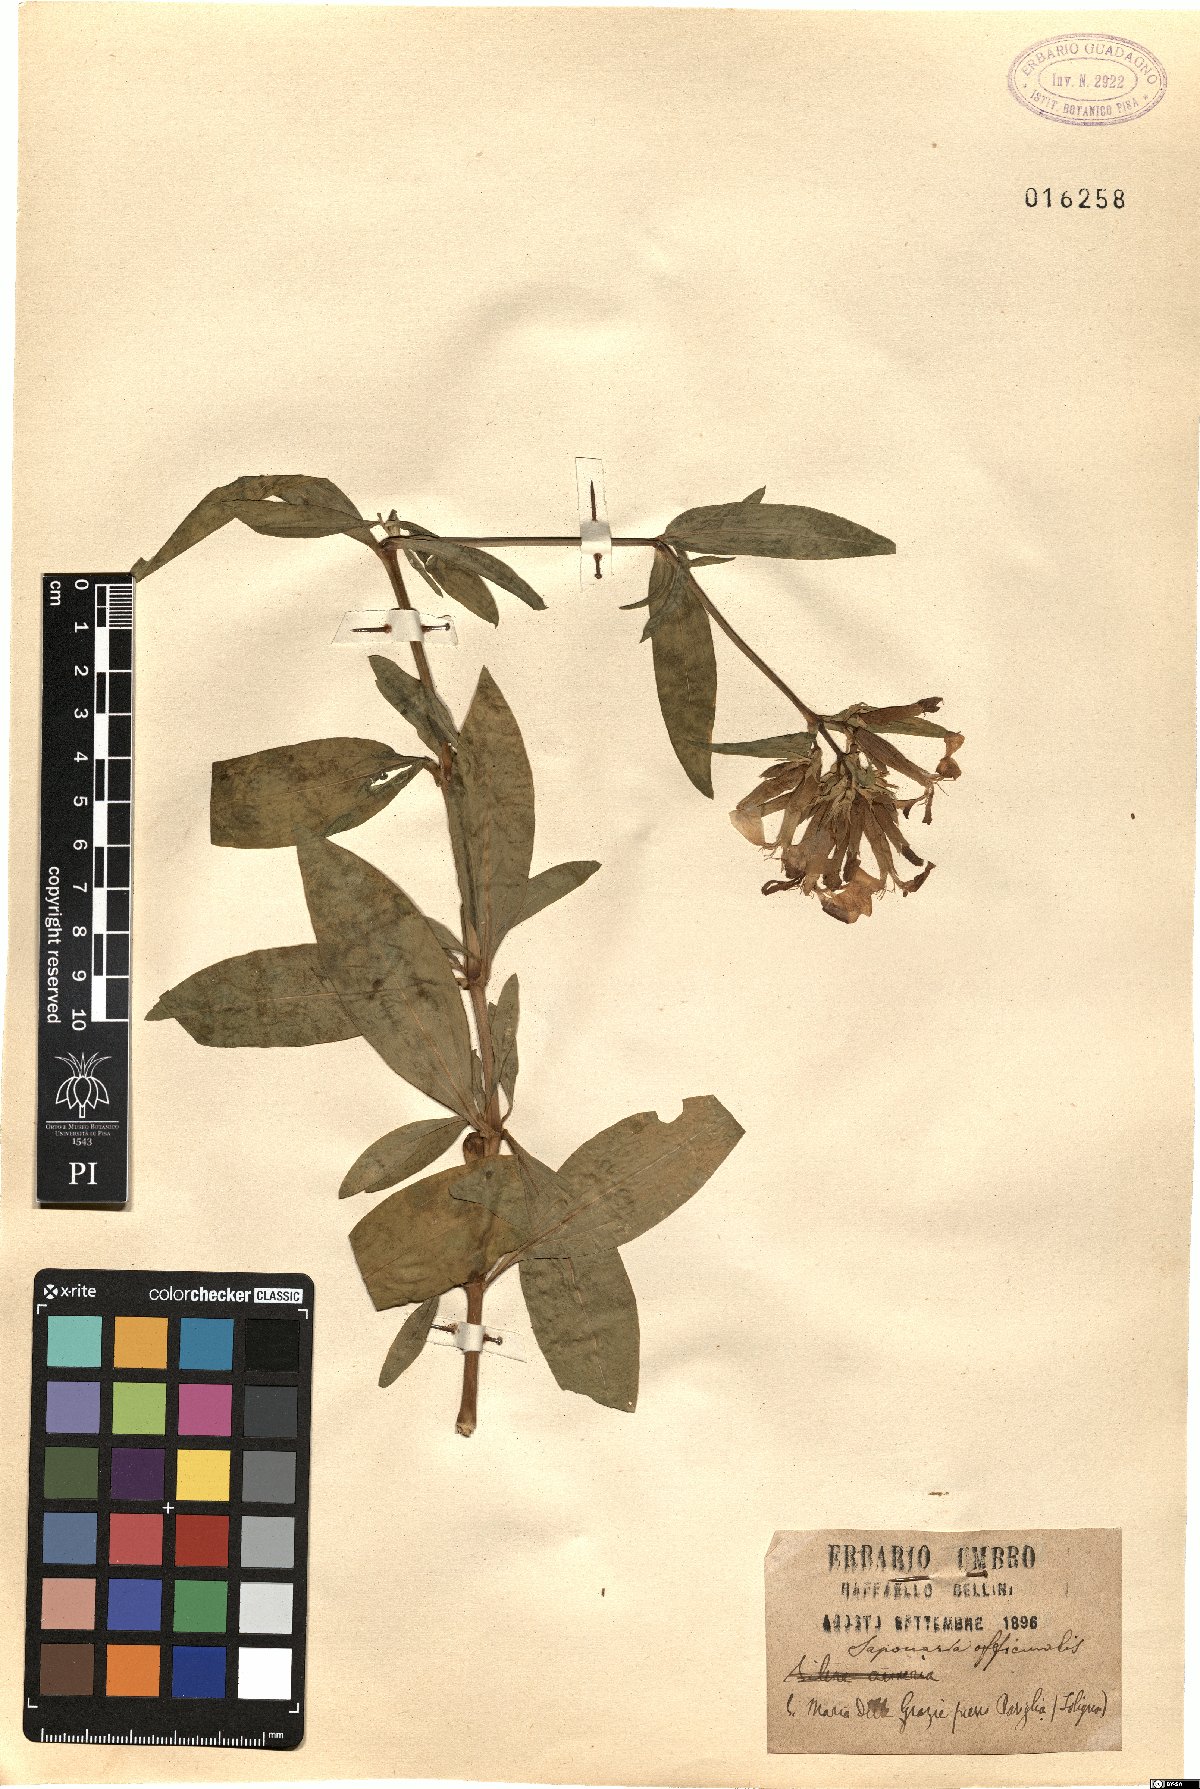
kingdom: Plantae
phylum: Tracheophyta
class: Magnoliopsida
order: Caryophyllales
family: Caryophyllaceae
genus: Saponaria
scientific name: Saponaria officinalis
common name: Soapwort
